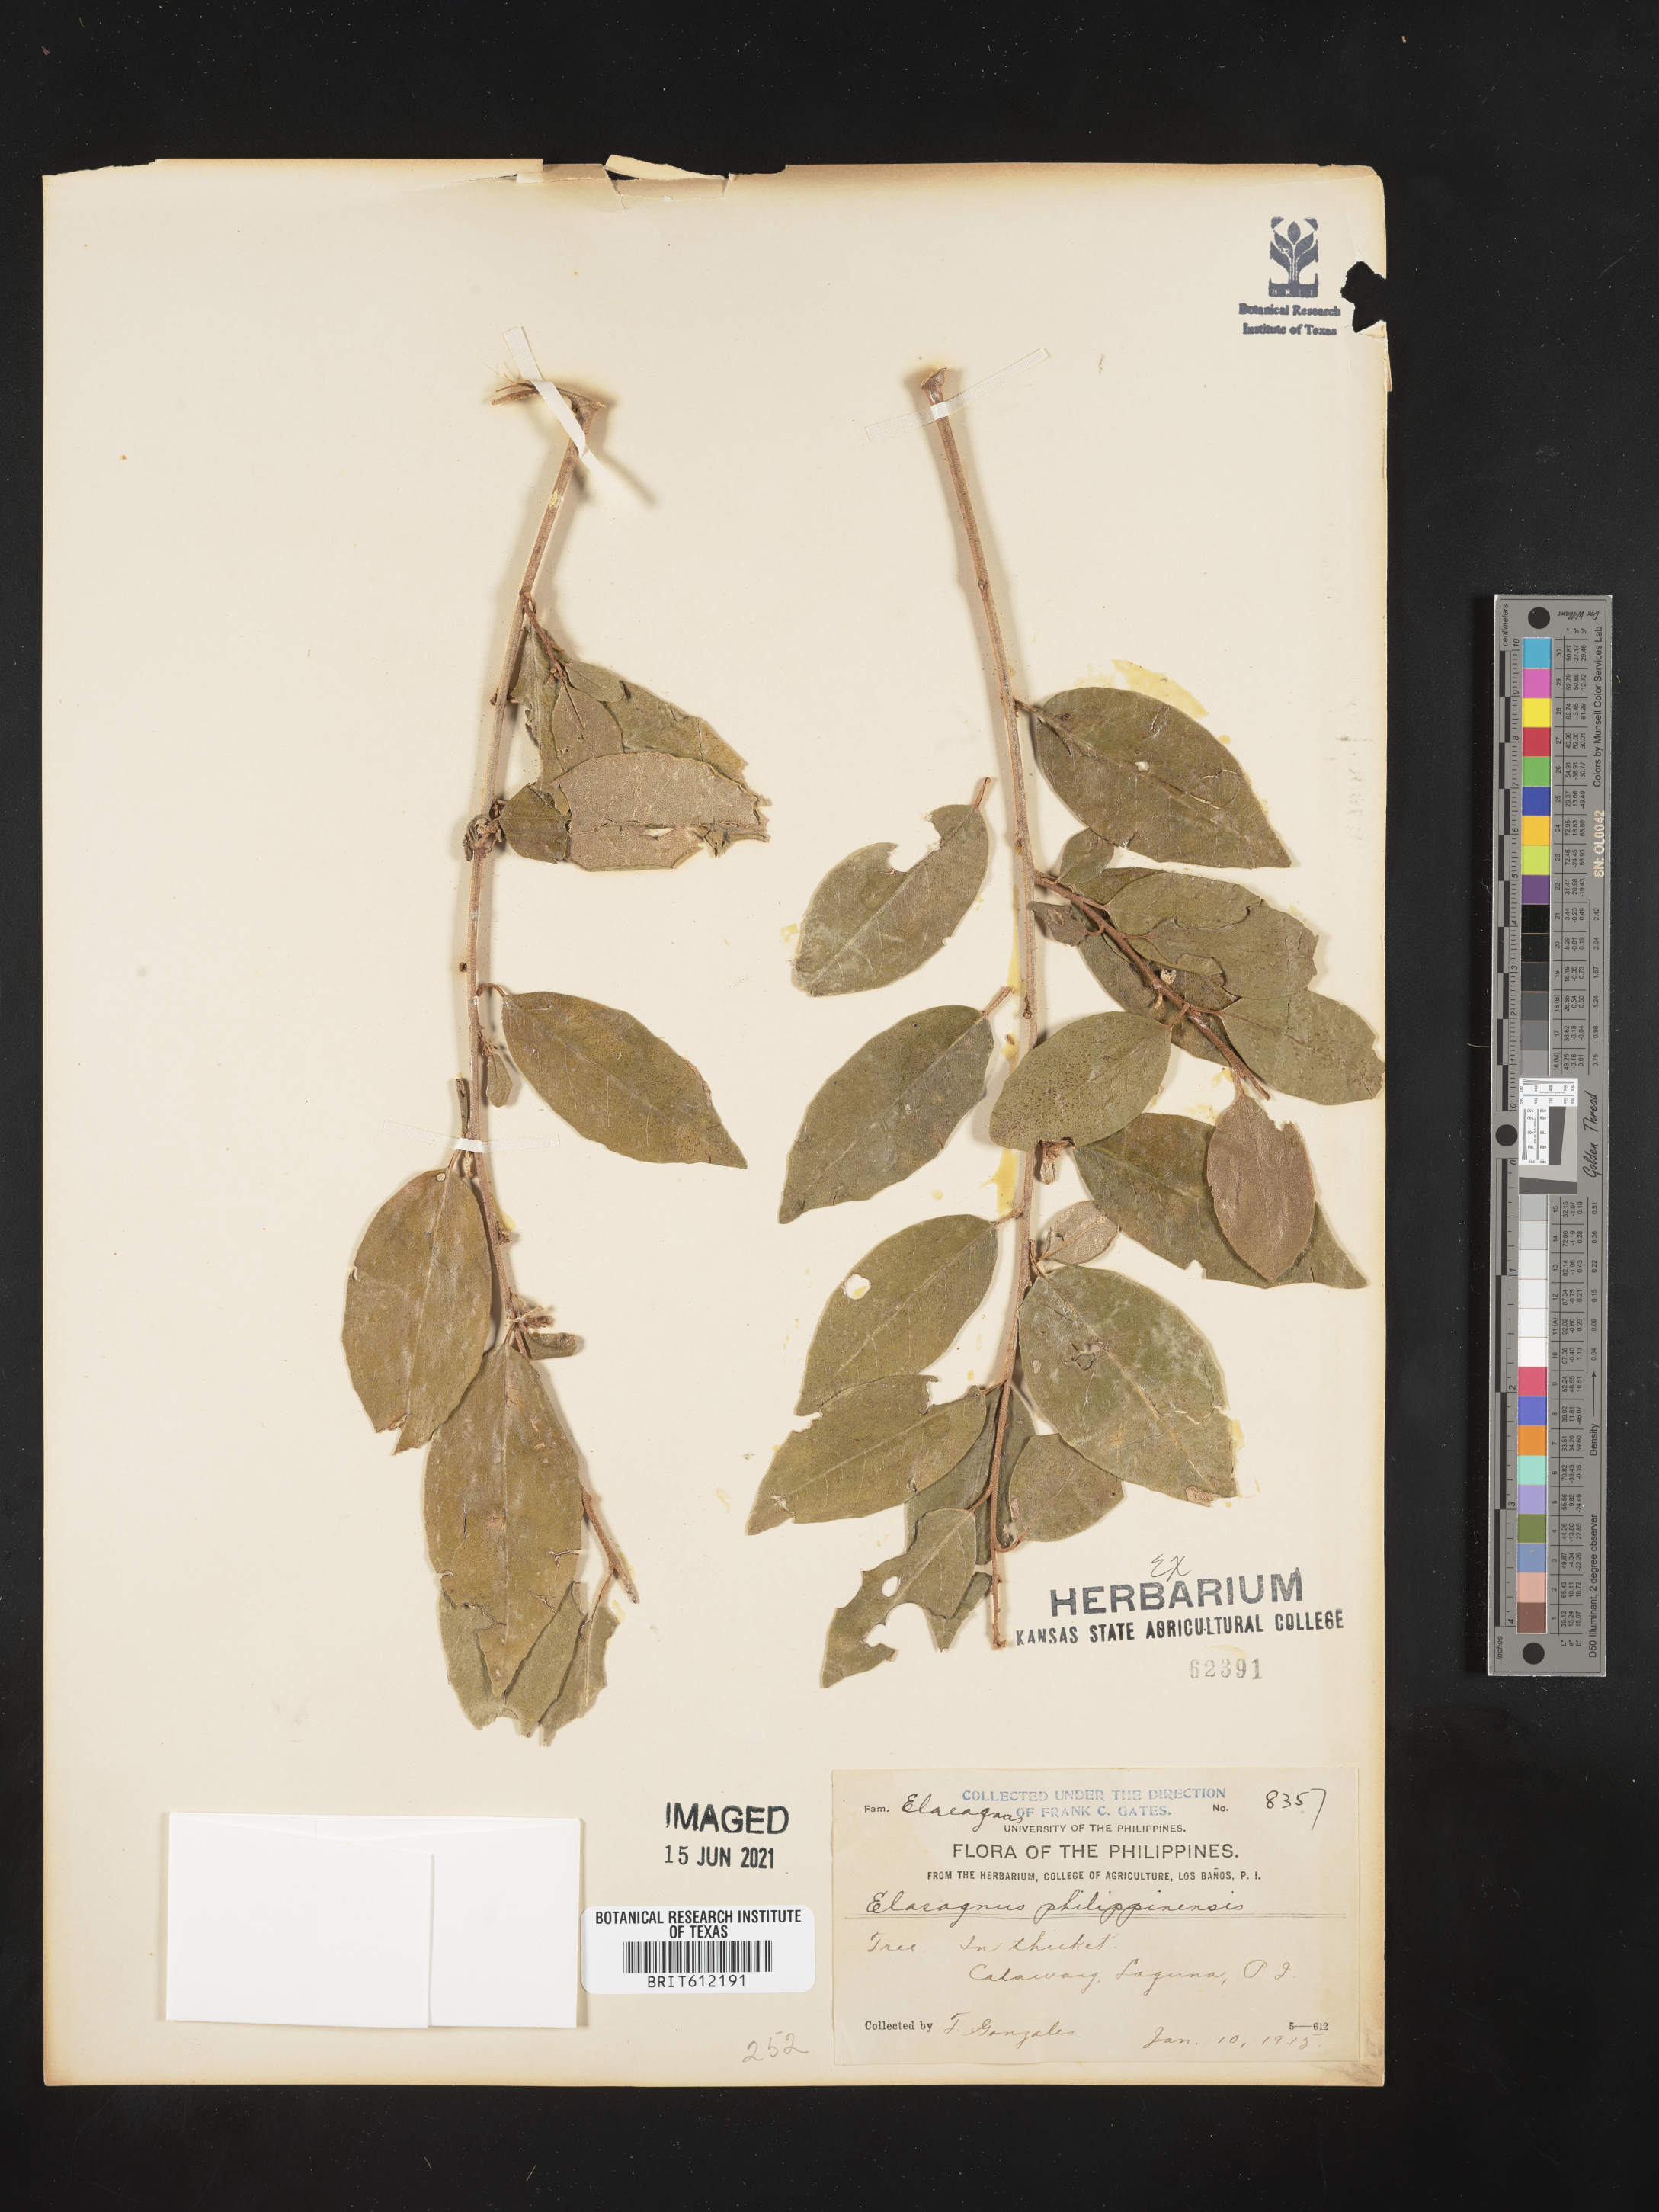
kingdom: Plantae
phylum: Tracheophyta
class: Magnoliopsida
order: Rosales
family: Elaeagnaceae
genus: Elaeagnus
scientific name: Elaeagnus triflora
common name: Millaa millaa-vine
